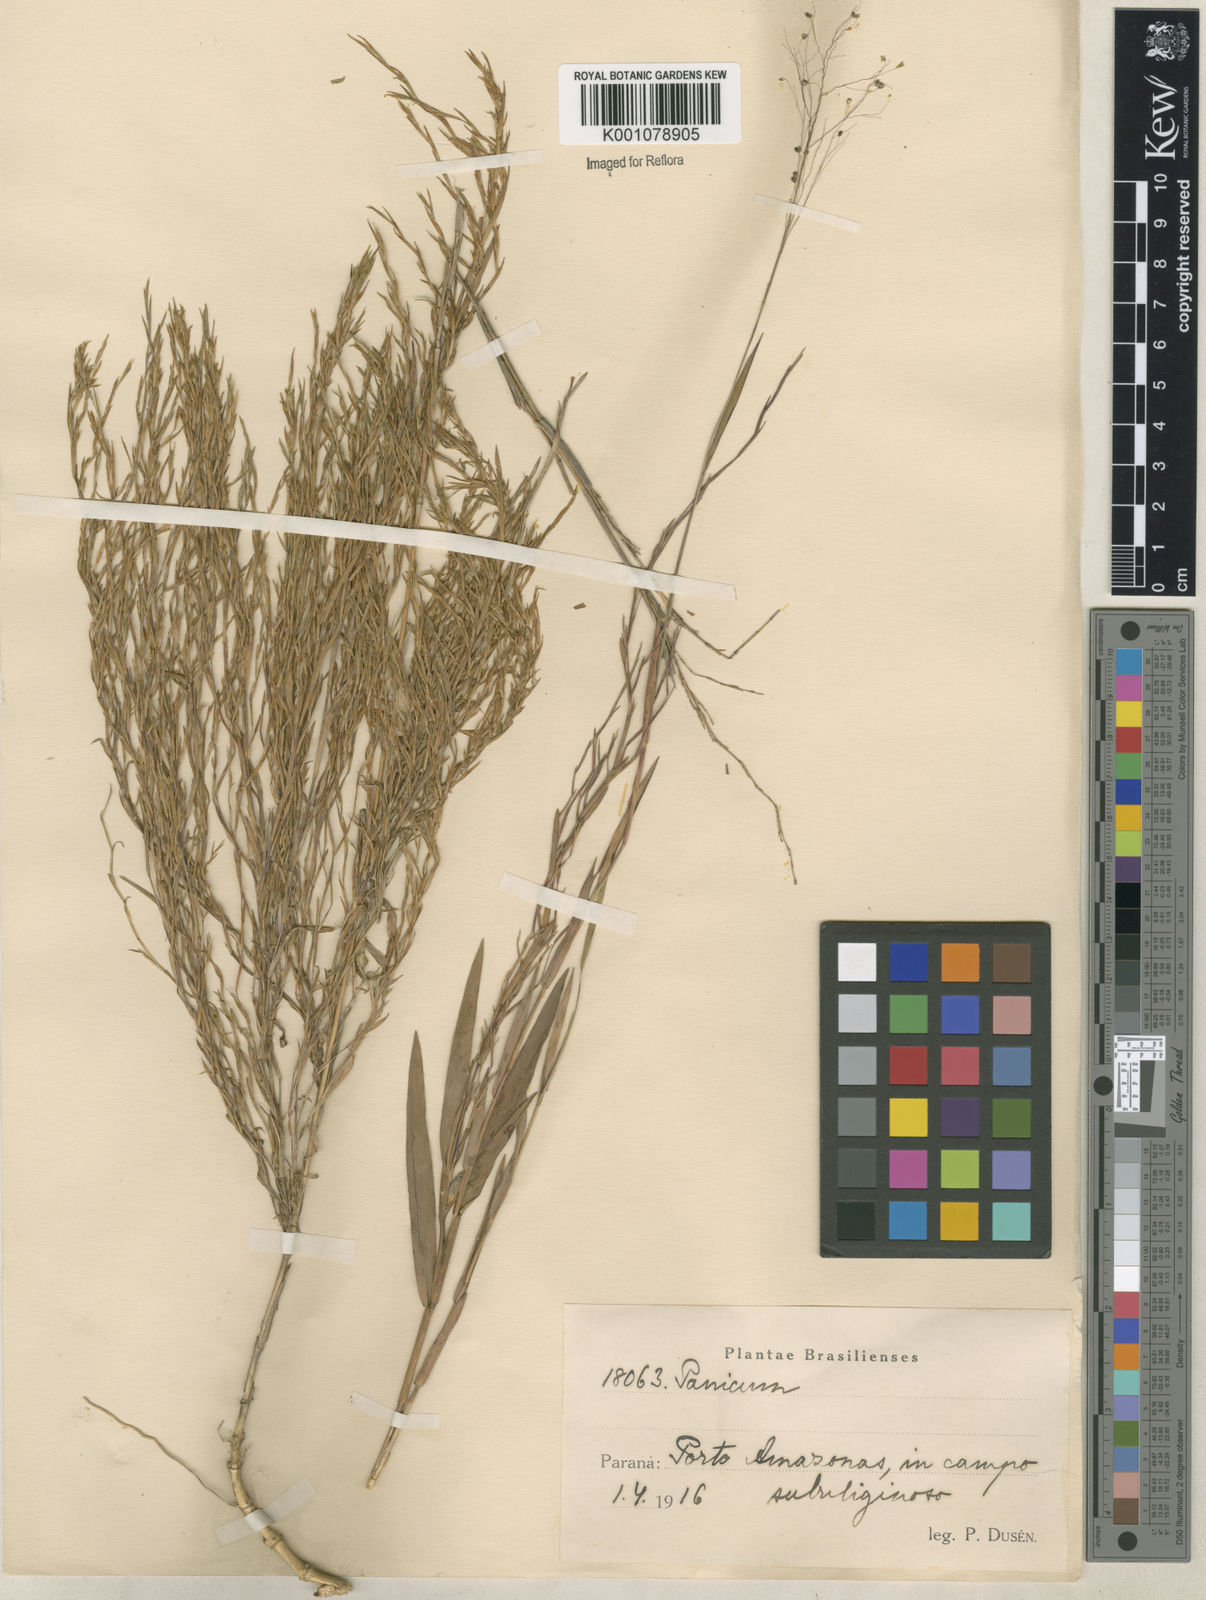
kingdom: Plantae
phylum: Tracheophyta
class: Liliopsida
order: Poales
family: Poaceae
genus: Trichanthecium
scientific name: Trichanthecium cyanescens
